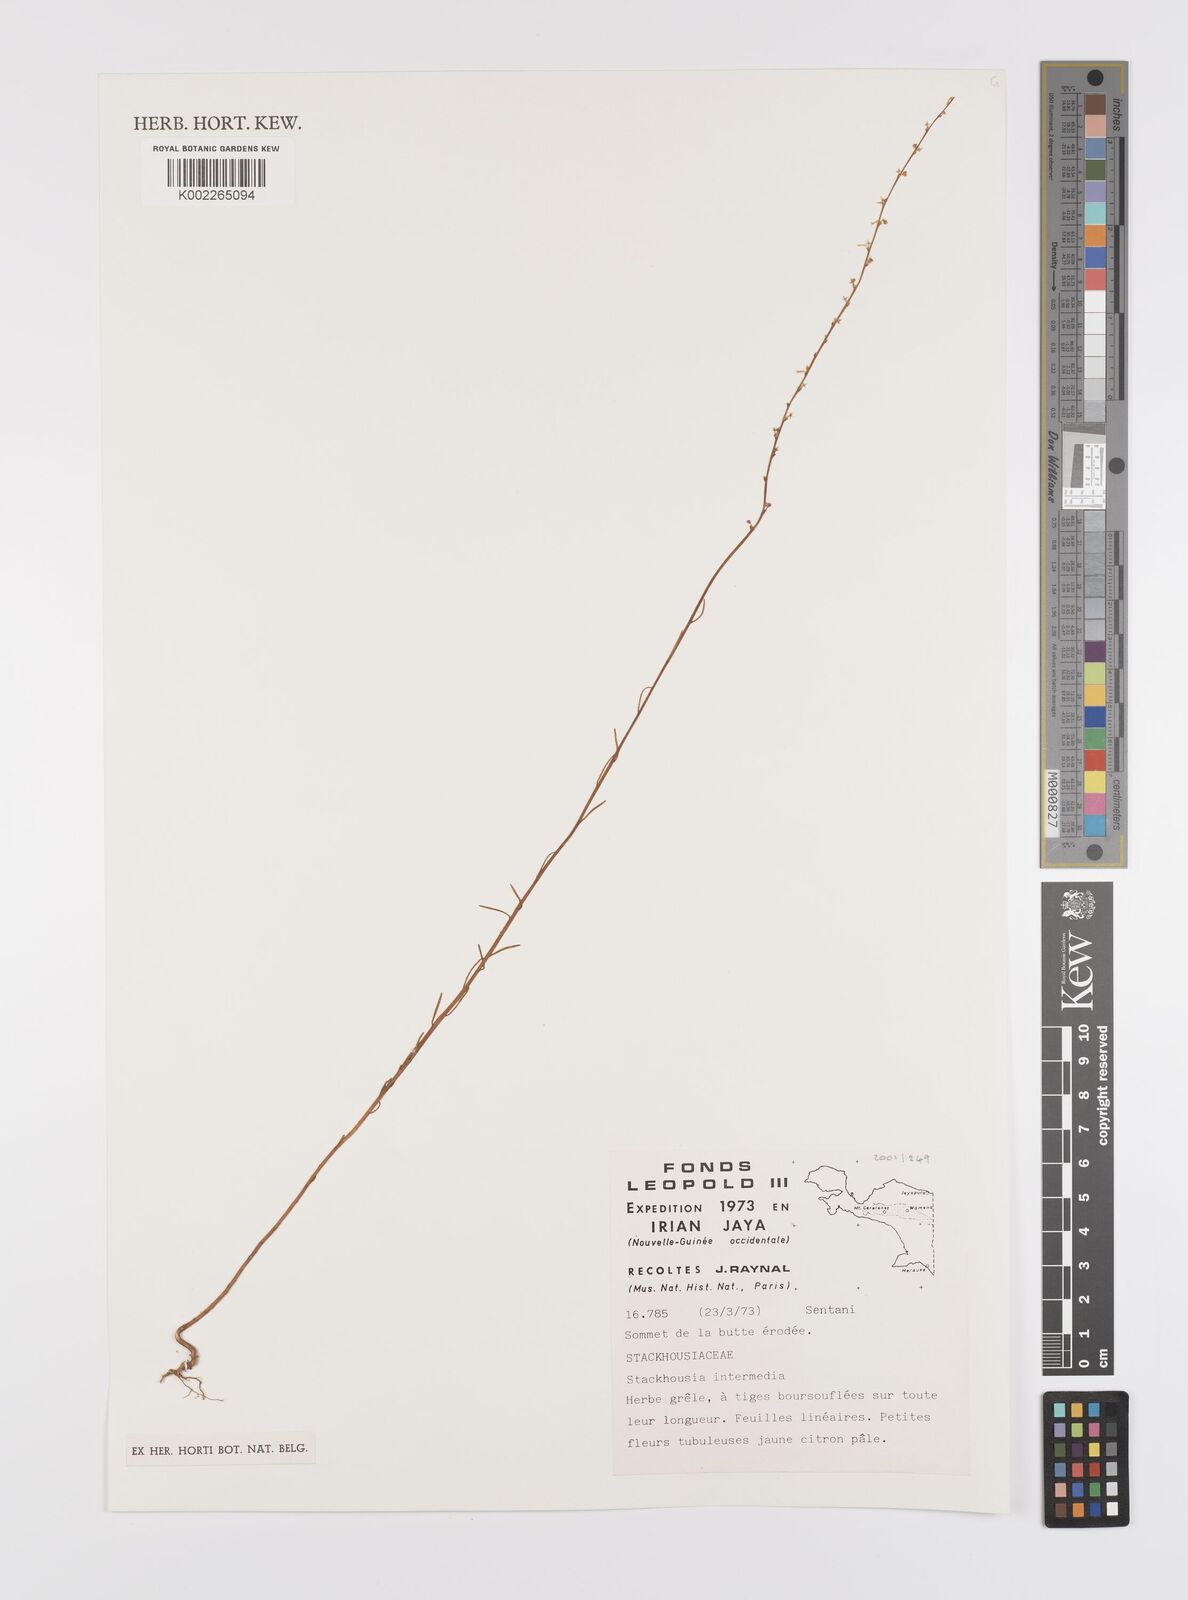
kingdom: Plantae
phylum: Tracheophyta
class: Magnoliopsida
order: Celastrales
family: Celastraceae
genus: Stackhousia
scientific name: Stackhousia intermedia
